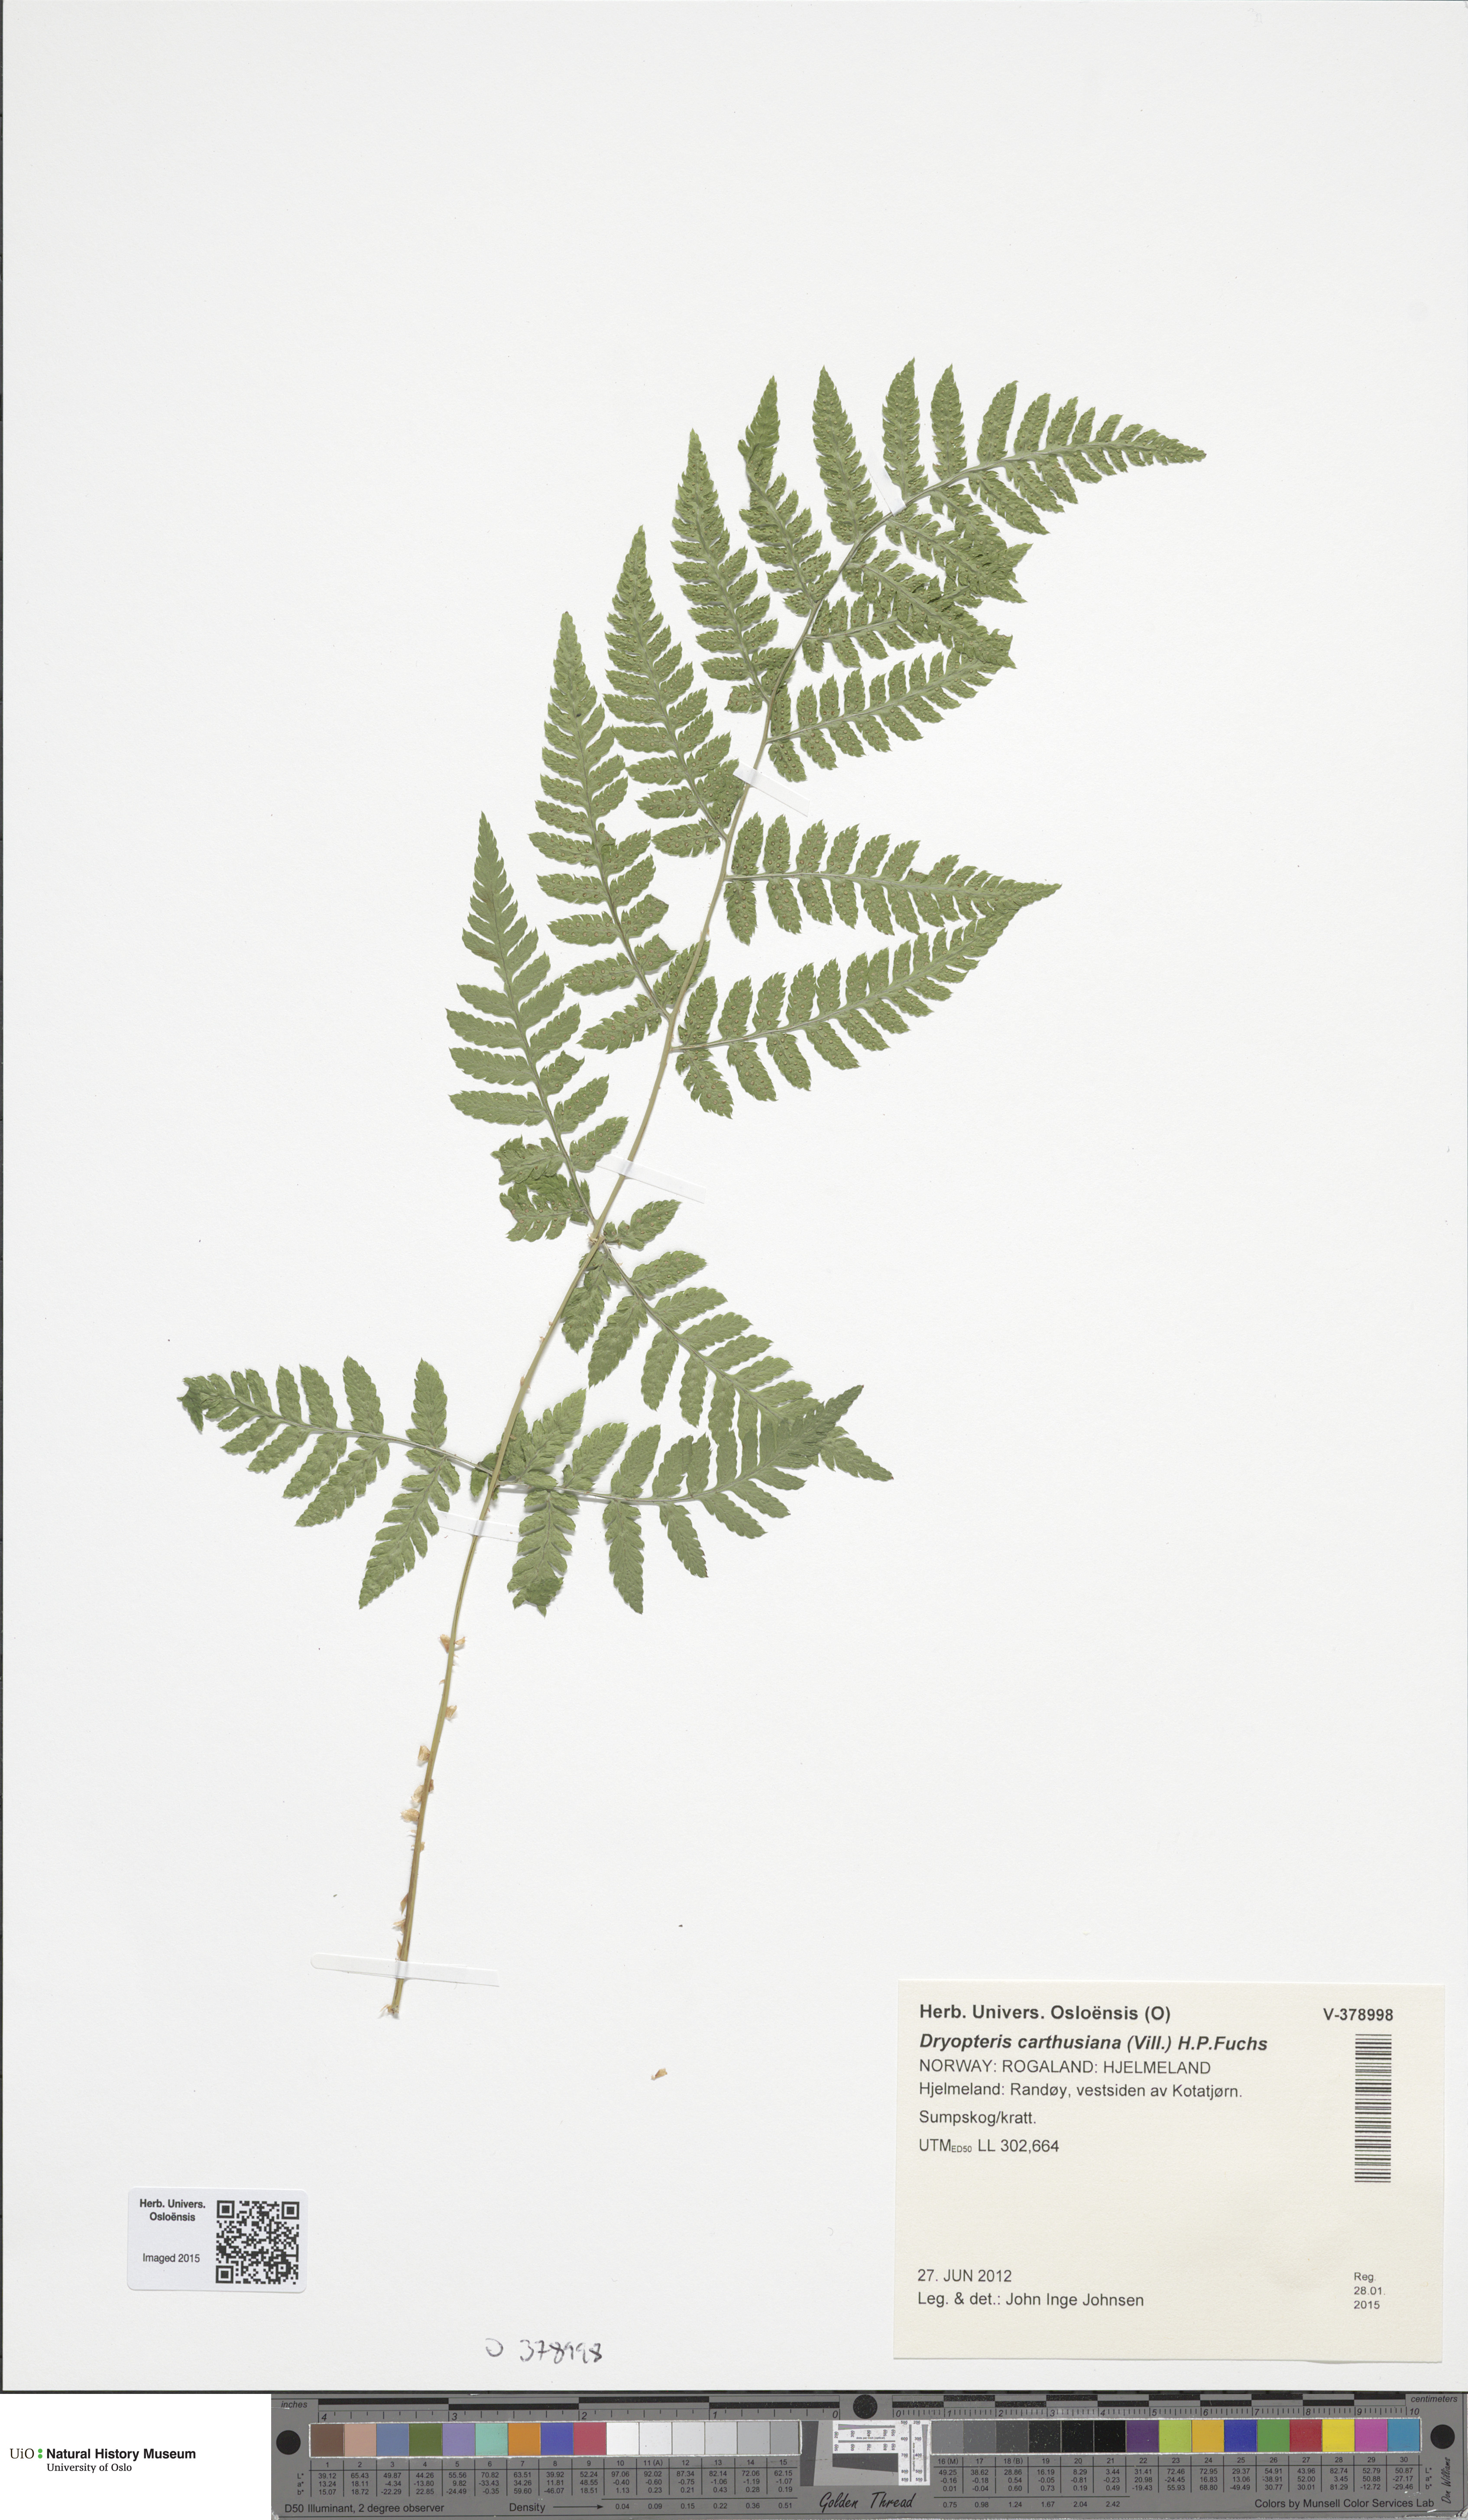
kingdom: Plantae
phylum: Tracheophyta
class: Polypodiopsida
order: Polypodiales
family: Dryopteridaceae
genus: Dryopteris
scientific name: Dryopteris carthusiana
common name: Narrow buckler-fern
